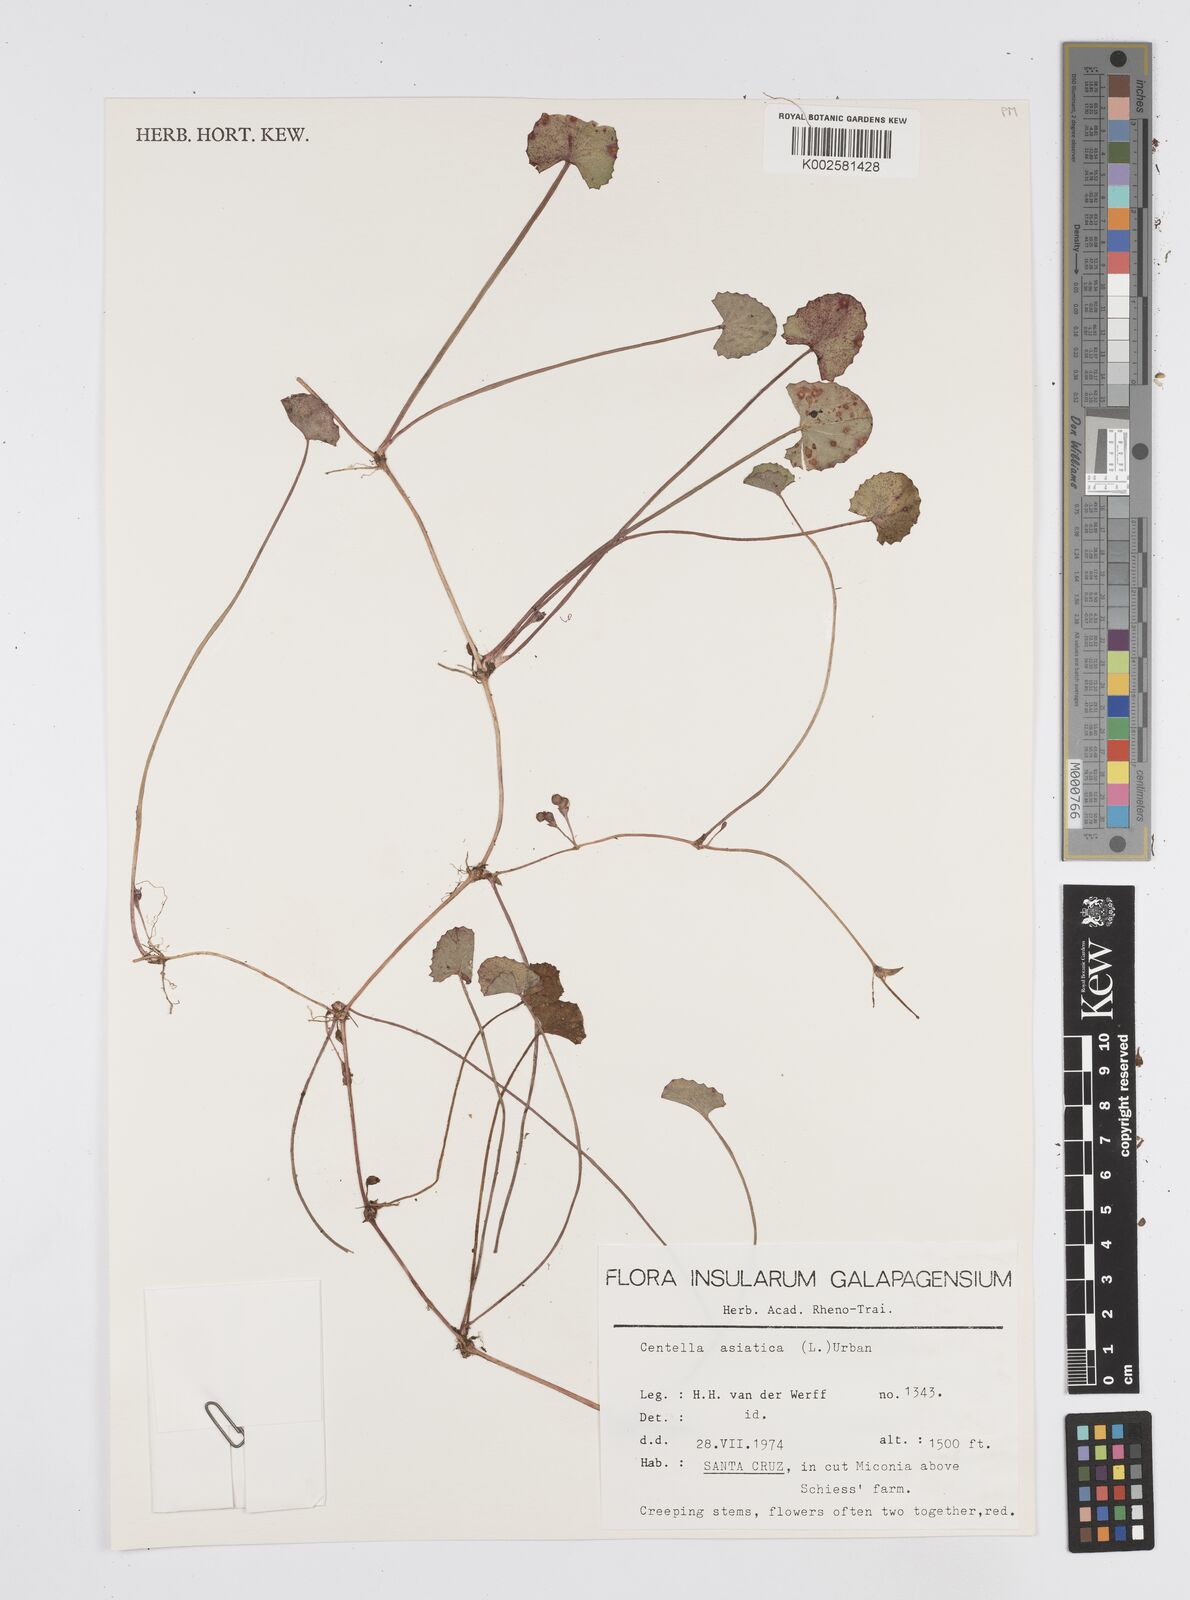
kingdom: Plantae
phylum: Tracheophyta
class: Magnoliopsida
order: Apiales
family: Apiaceae
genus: Centella
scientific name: Centella asiatica
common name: Spadeleaf
